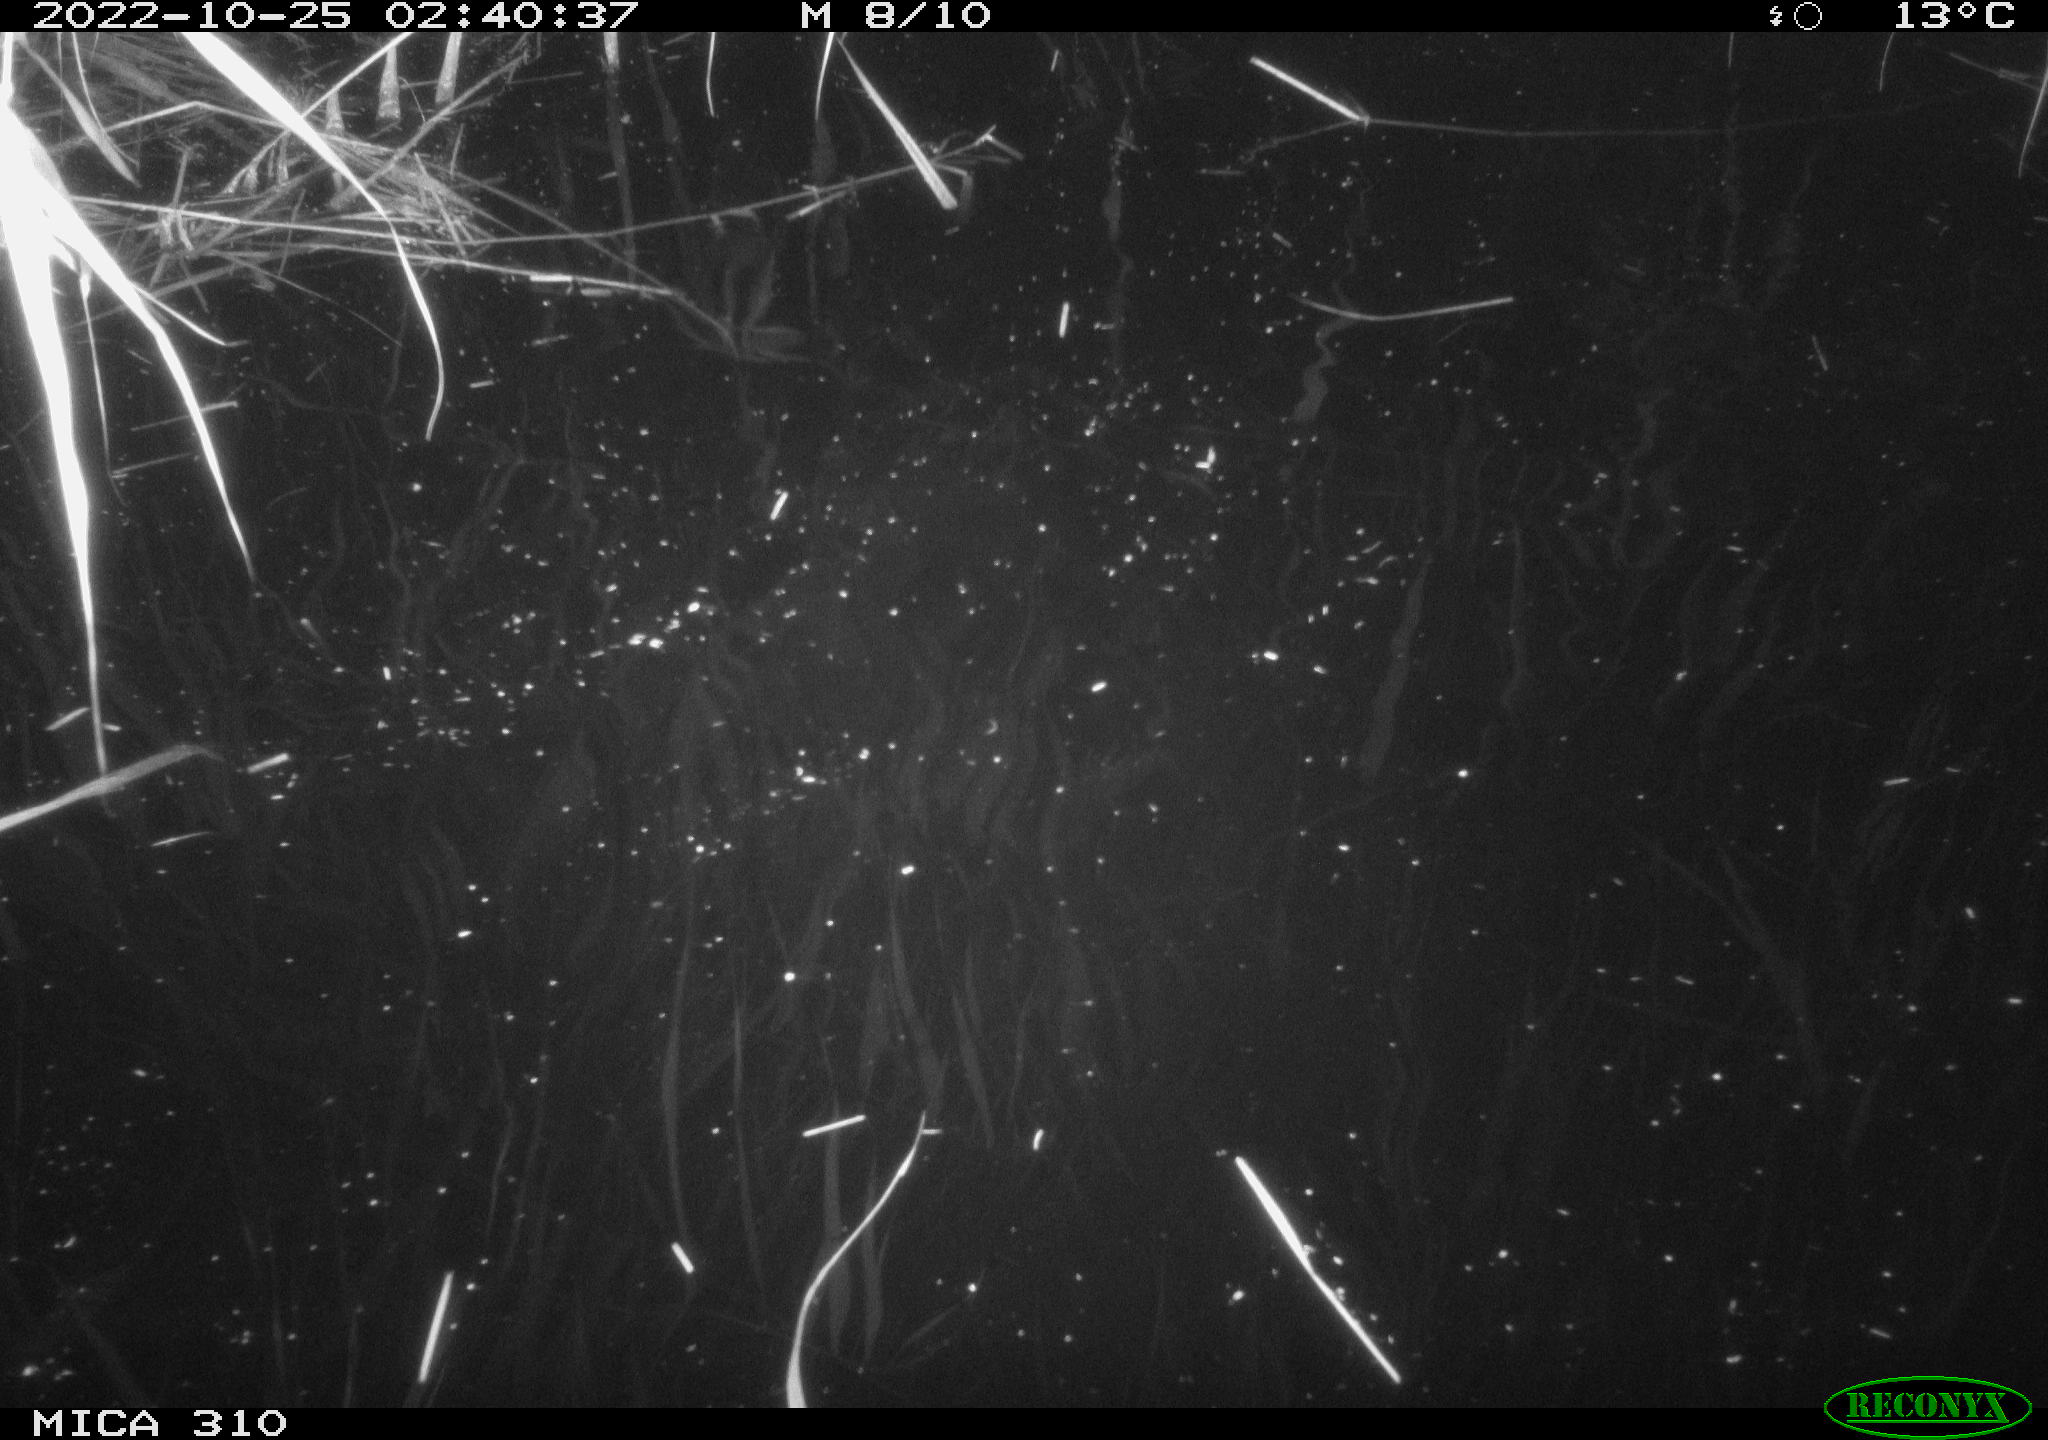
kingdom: Animalia
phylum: Chordata
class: Mammalia
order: Rodentia
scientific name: Rodentia
